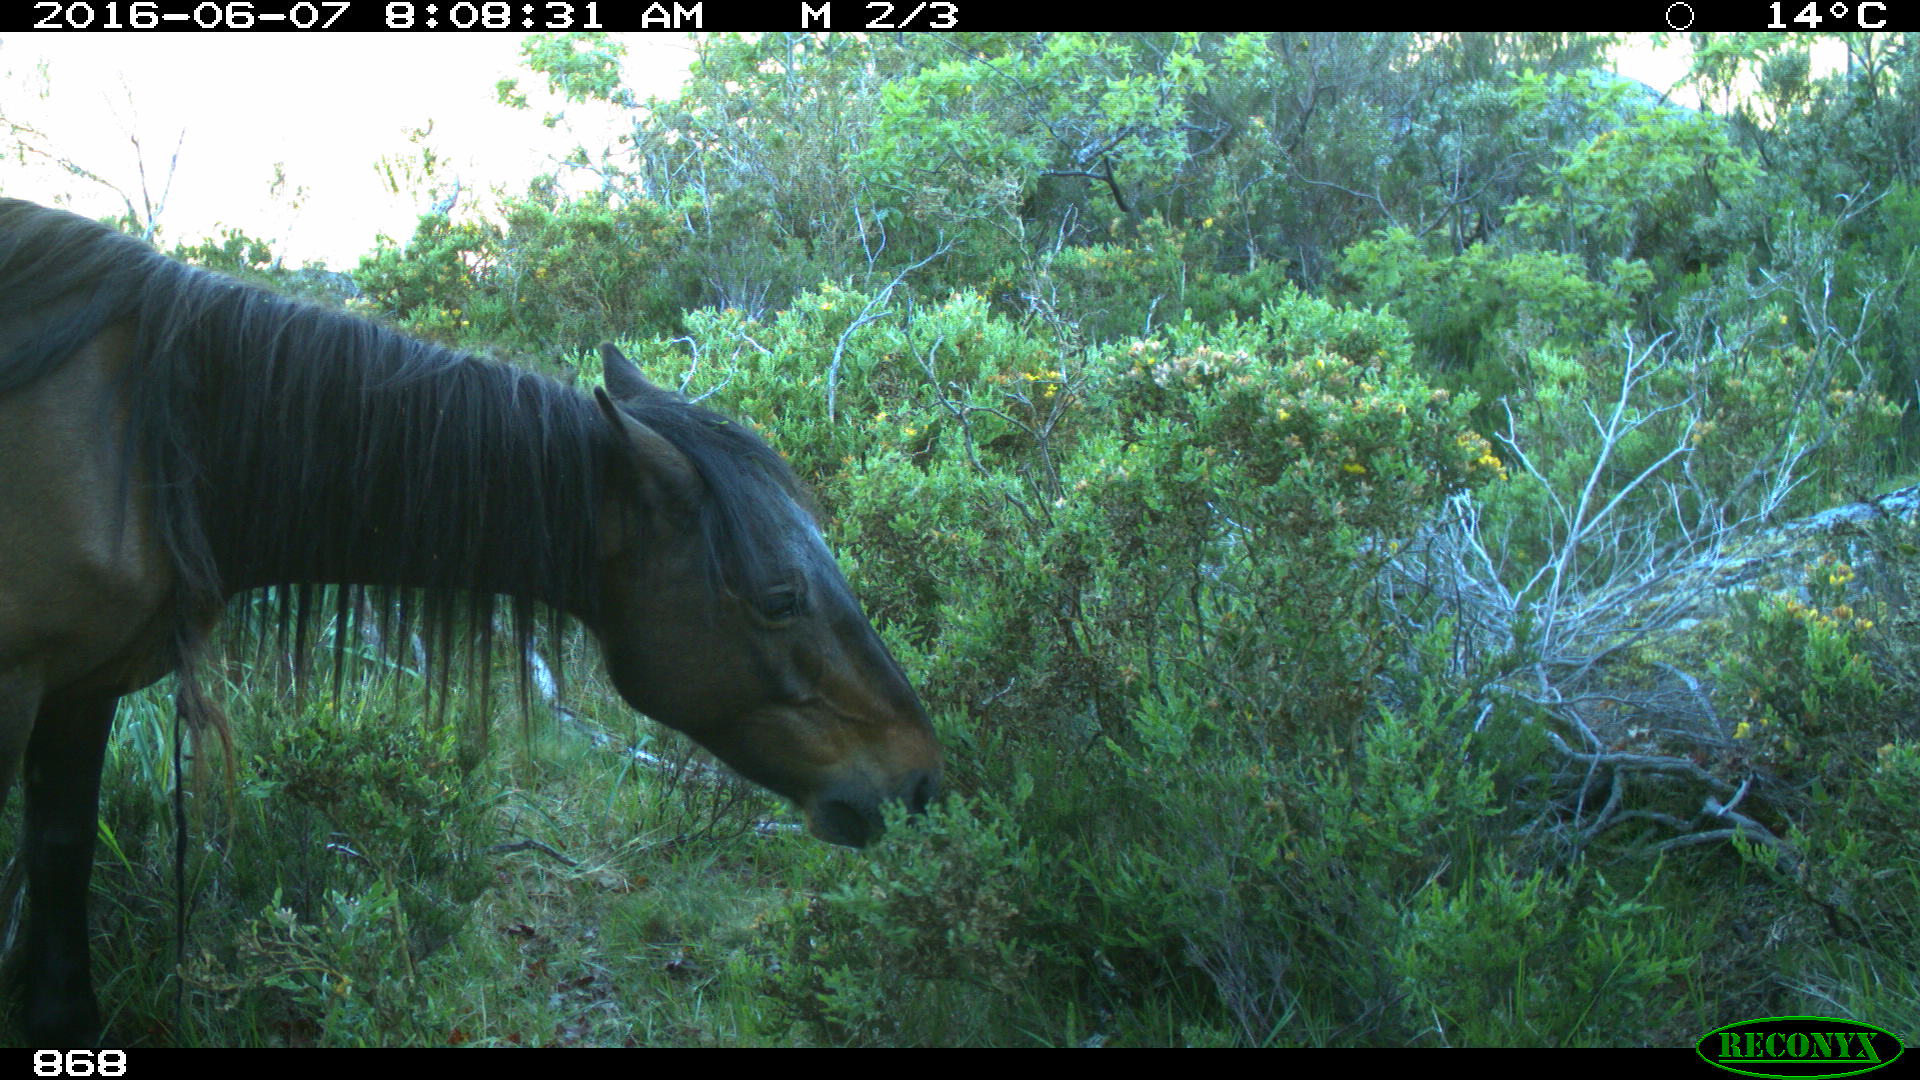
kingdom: Animalia
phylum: Chordata
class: Mammalia
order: Perissodactyla
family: Equidae
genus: Equus
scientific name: Equus caballus
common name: Horse
